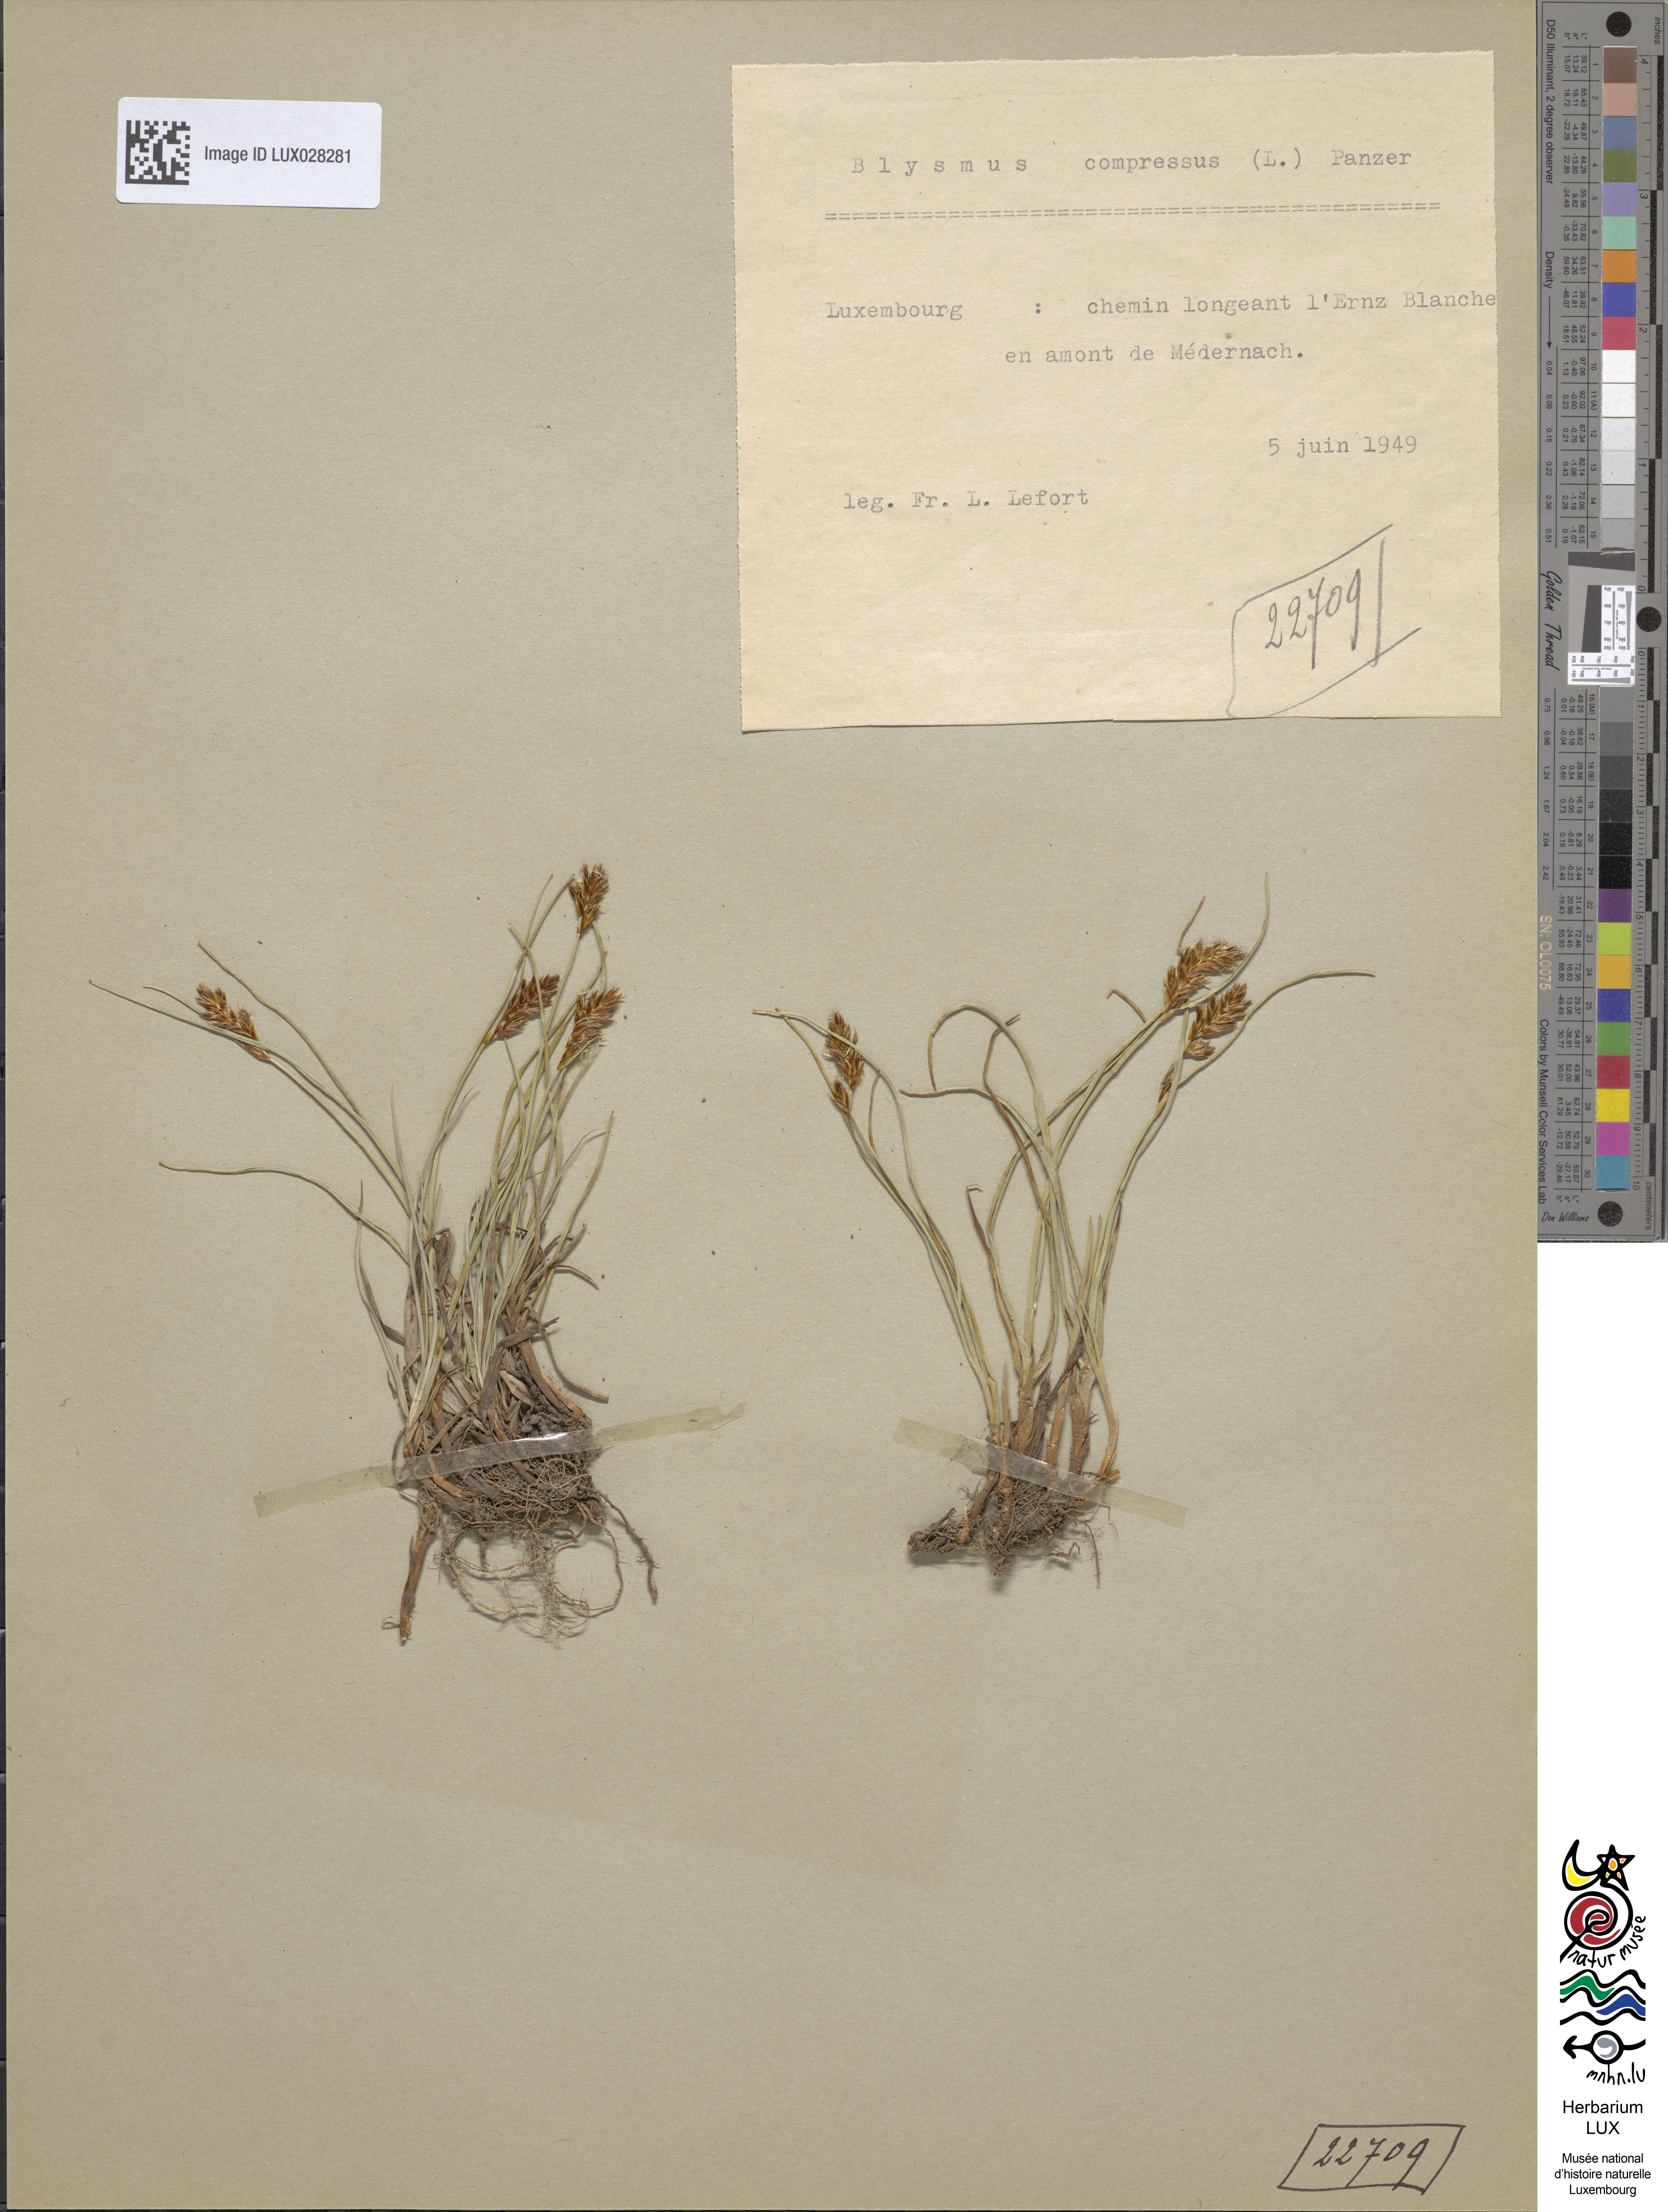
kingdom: Plantae
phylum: Tracheophyta
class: Liliopsida
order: Poales
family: Cyperaceae
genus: Blysmus
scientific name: Blysmus compressus
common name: Flat-sedge
